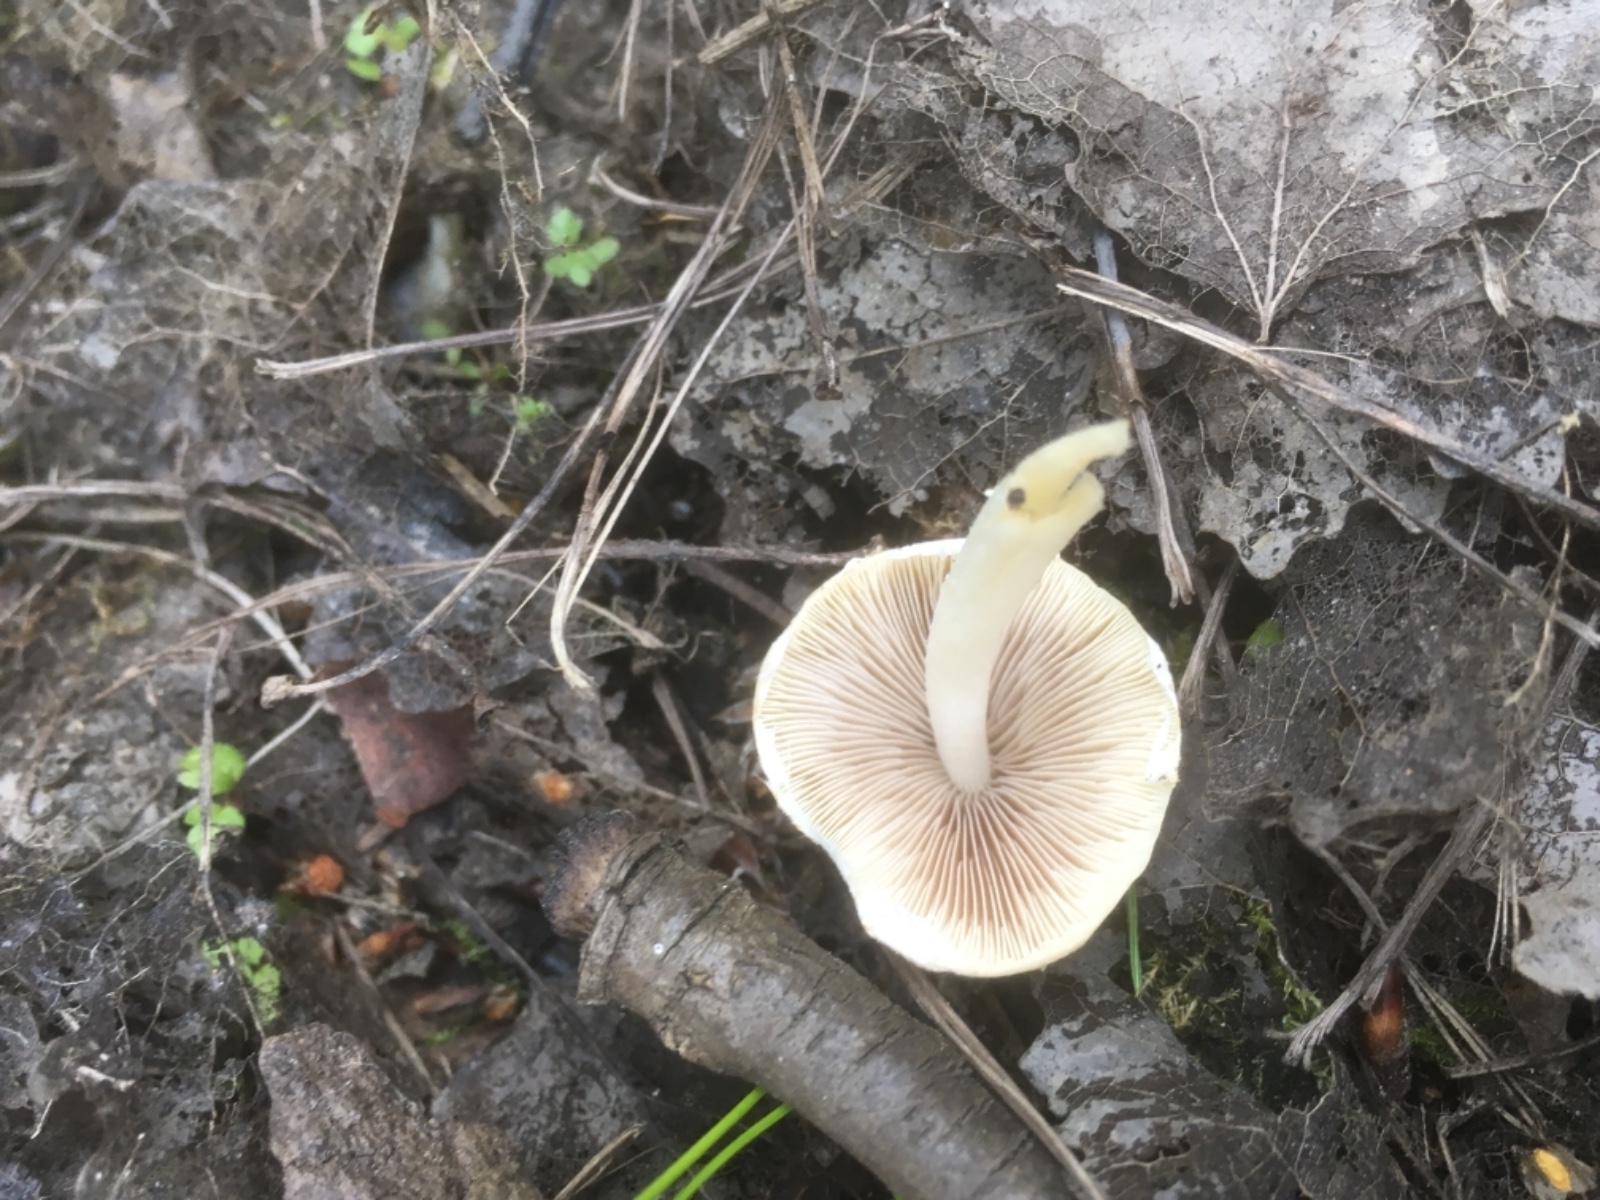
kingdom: Fungi
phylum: Basidiomycota
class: Agaricomycetes
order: Agaricales
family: Psathyrellaceae
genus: Candolleomyces
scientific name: Candolleomyces candolleanus
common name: Candolles mørkhat
